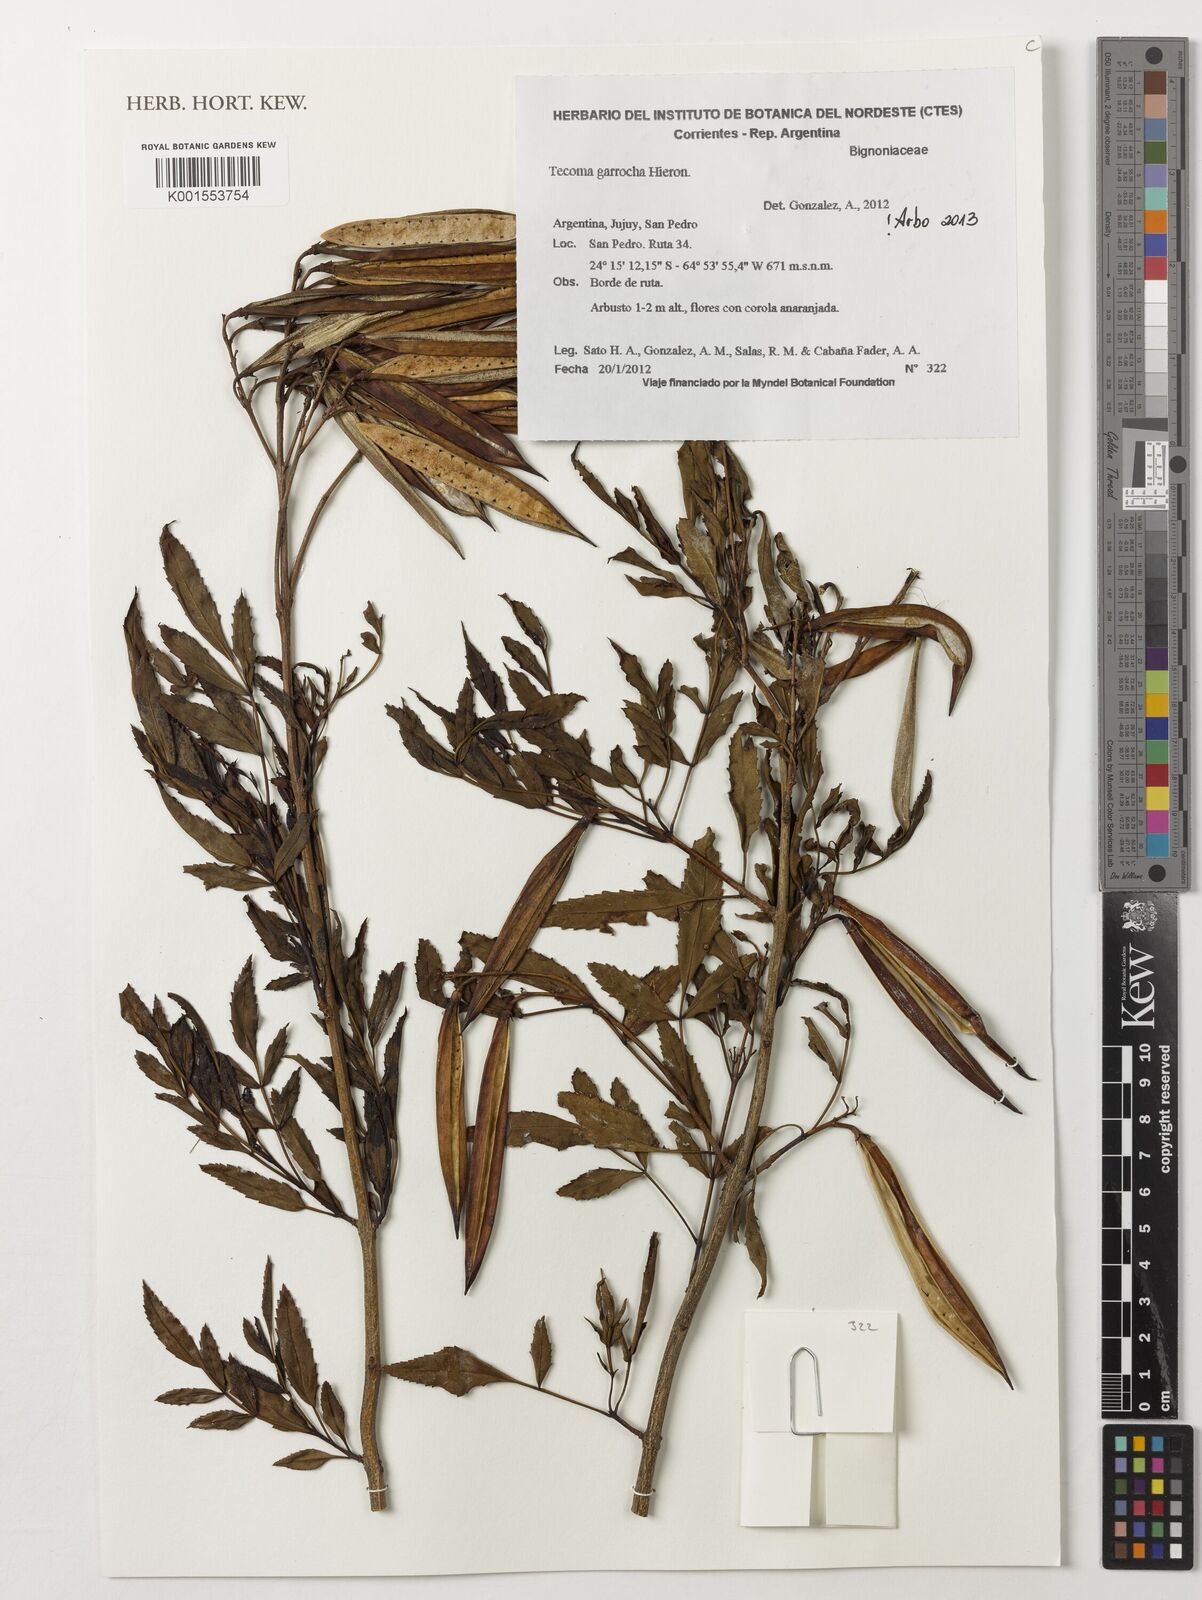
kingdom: Plantae
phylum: Tracheophyta
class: Magnoliopsida
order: Lamiales
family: Bignoniaceae
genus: Tecoma
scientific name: Tecoma fulva
